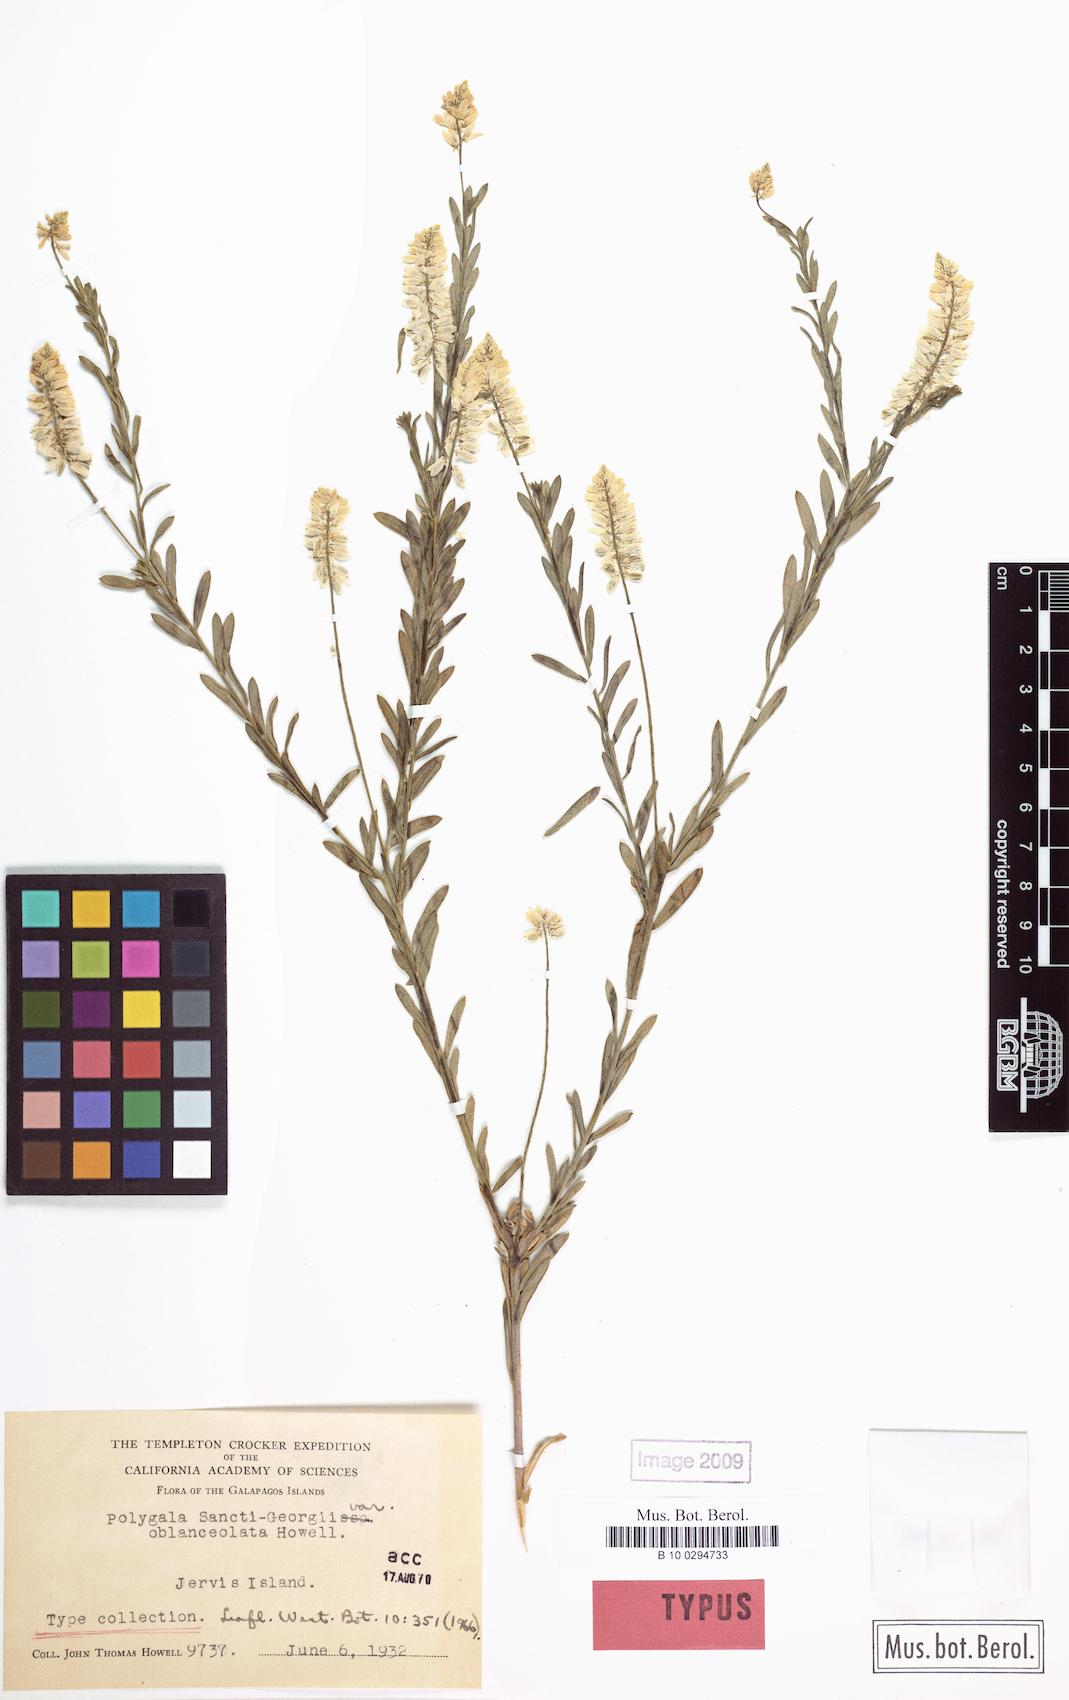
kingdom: Plantae
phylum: Tracheophyta
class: Magnoliopsida
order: Fabales
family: Polygalaceae
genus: Polygala
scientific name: Polygala sancti-georgii
